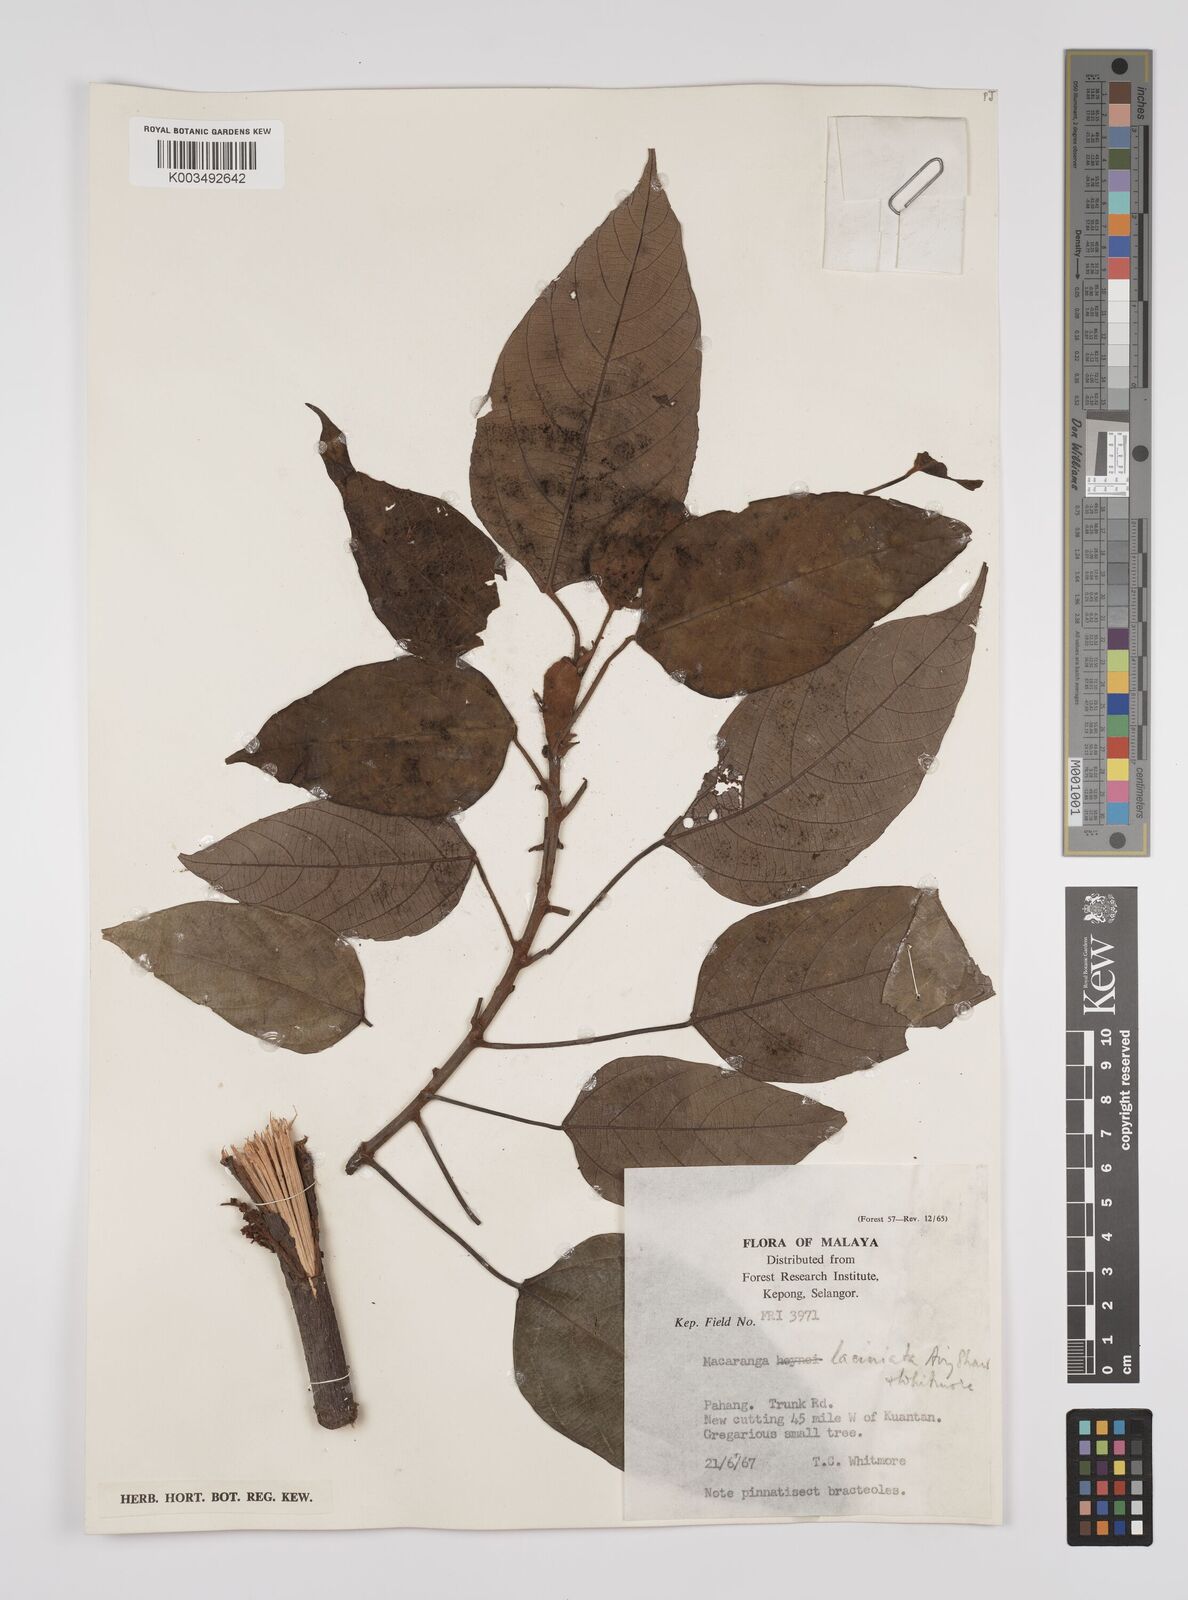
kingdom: Plantae
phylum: Tracheophyta
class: Magnoliopsida
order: Malpighiales
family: Euphorbiaceae
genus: Macaranga
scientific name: Macaranga laciniata
